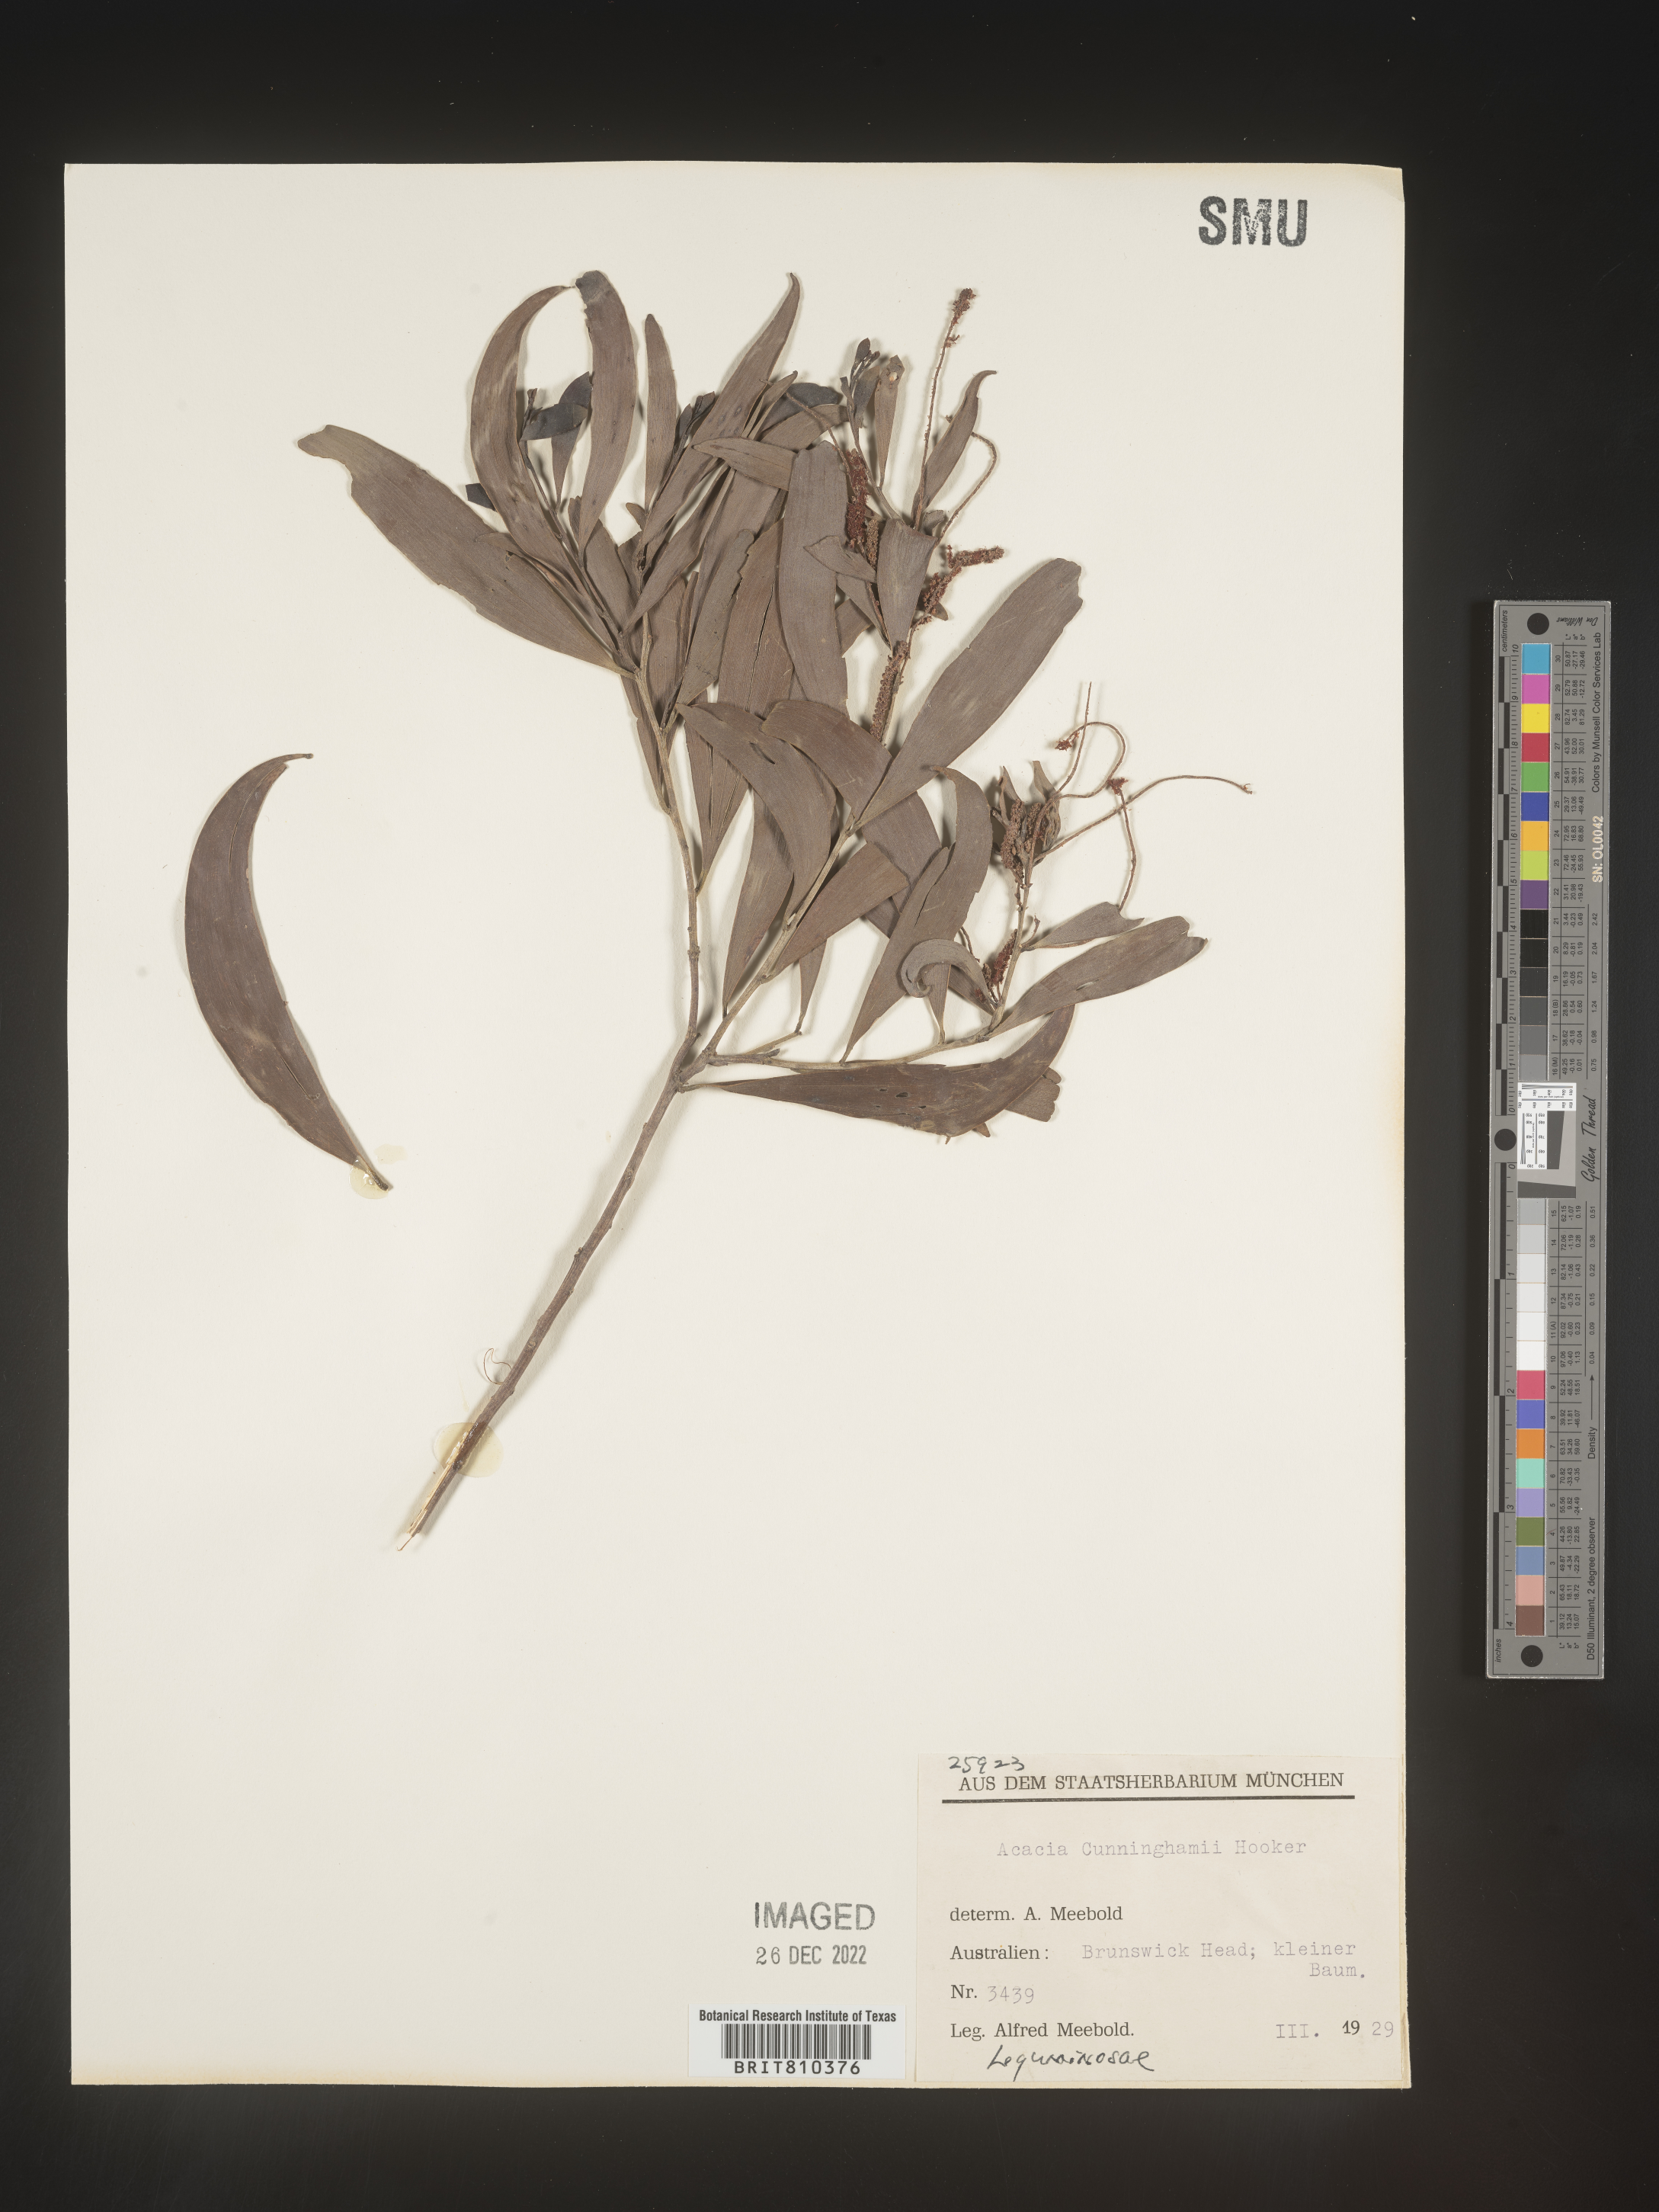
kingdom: Plantae
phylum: Tracheophyta
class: Magnoliopsida
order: Fabales
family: Fabaceae
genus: Acacia
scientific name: Acacia
